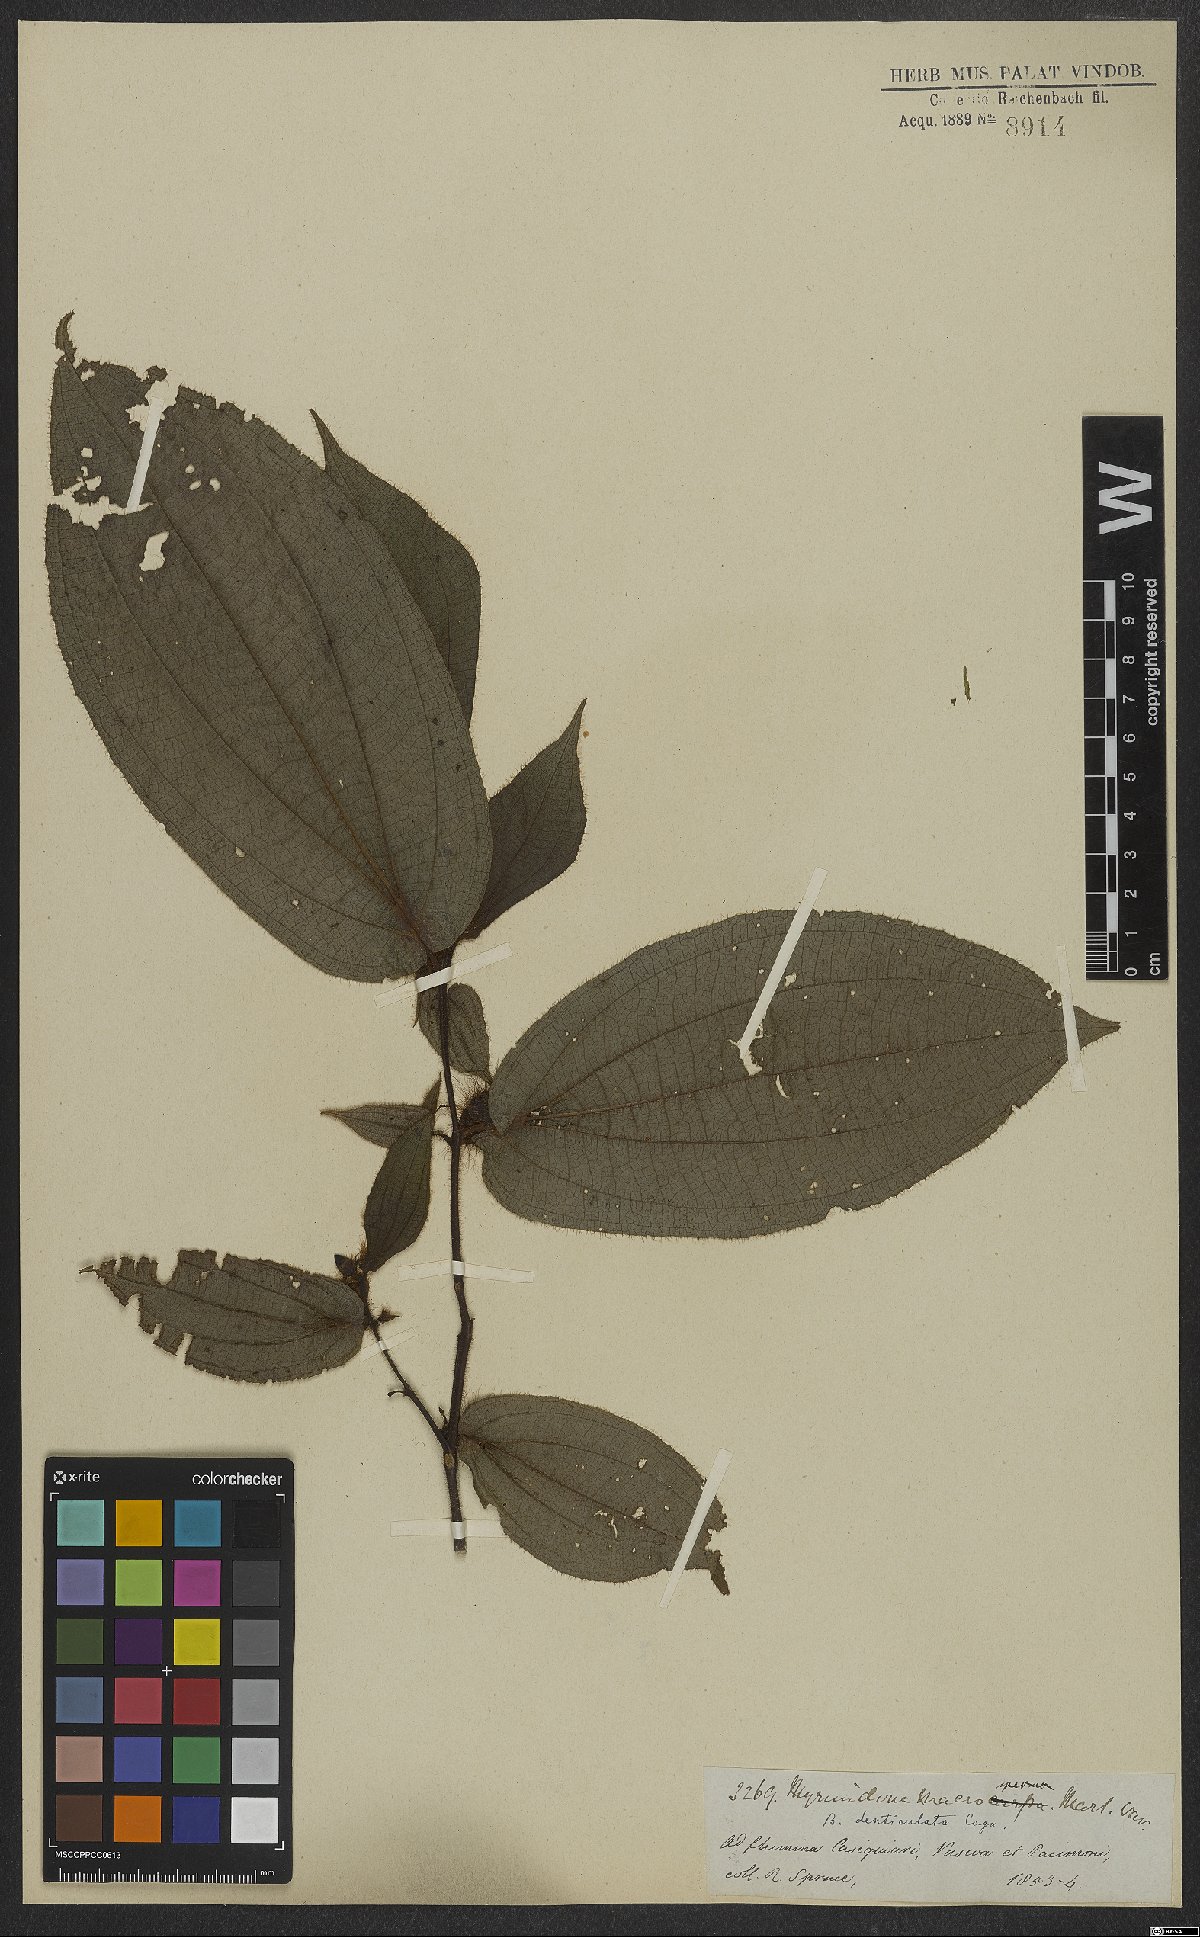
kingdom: Plantae
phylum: Tracheophyta
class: Magnoliopsida
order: Myrtales
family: Melastomataceae
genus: Miconia
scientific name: Miconia macrosperma
